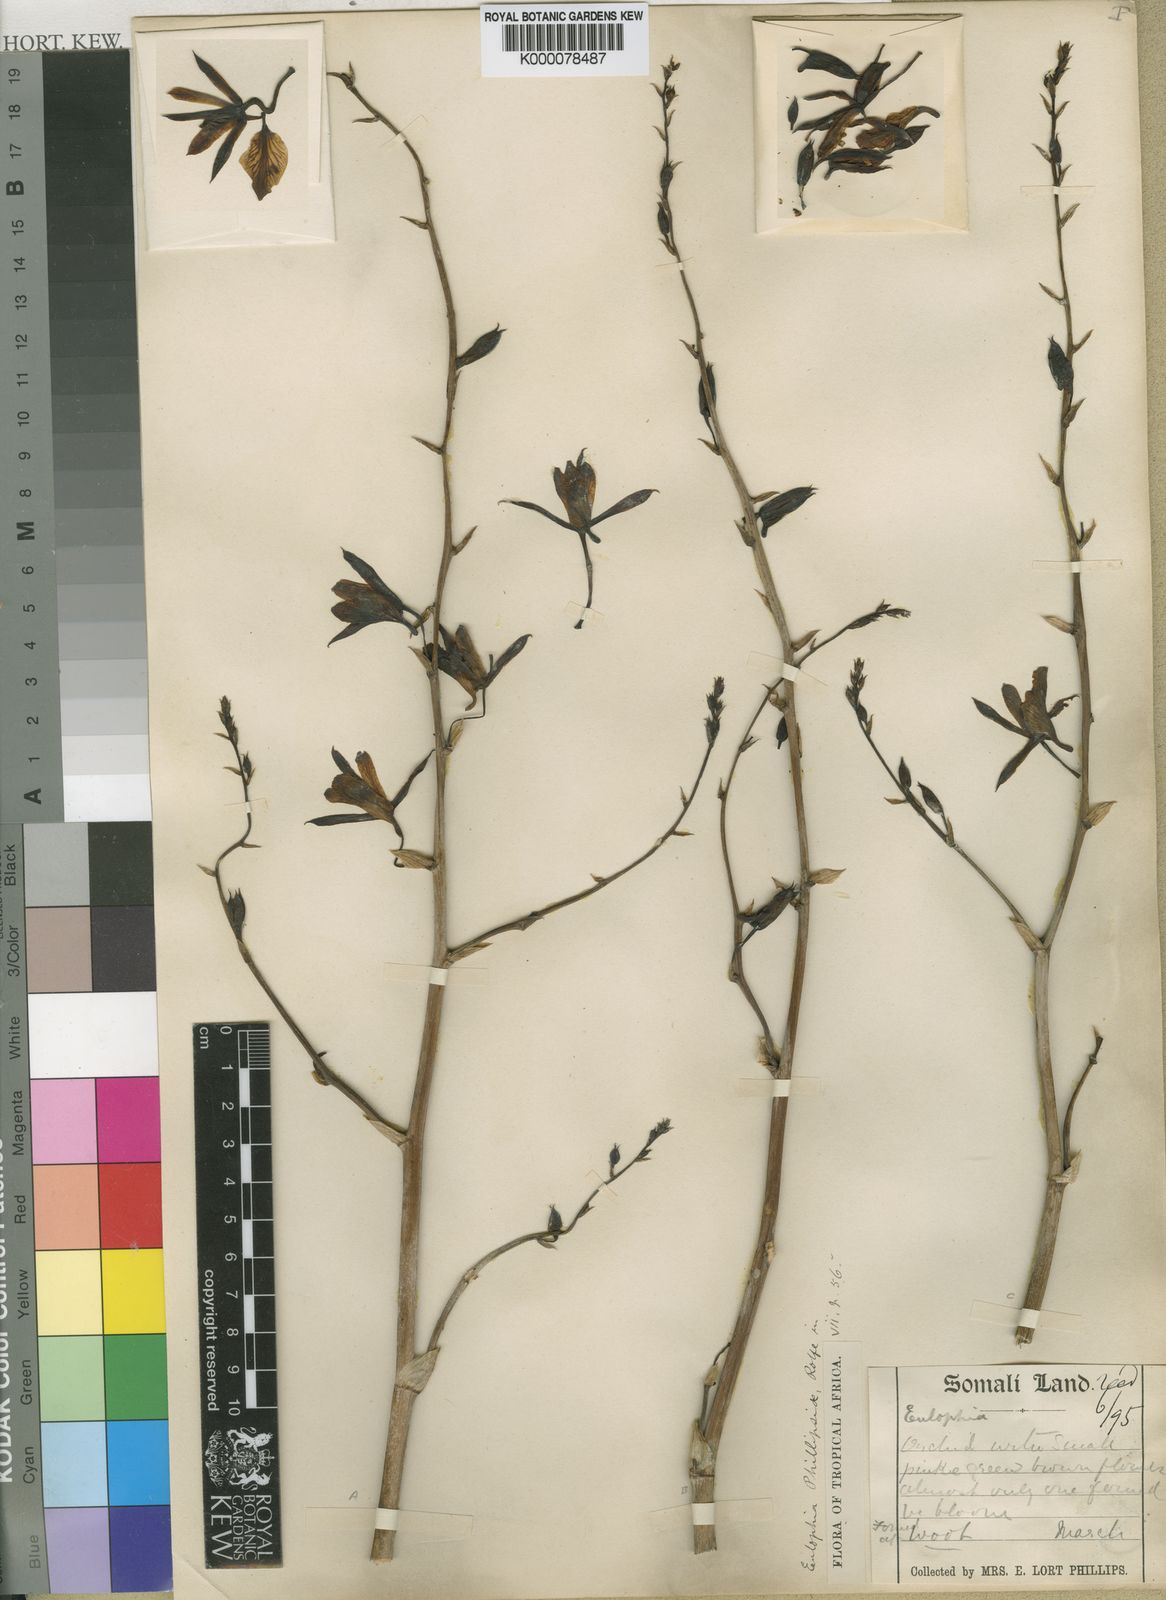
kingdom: Plantae
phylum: Tracheophyta
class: Liliopsida
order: Asparagales
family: Orchidaceae
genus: Eulophia
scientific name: Eulophia petersii
